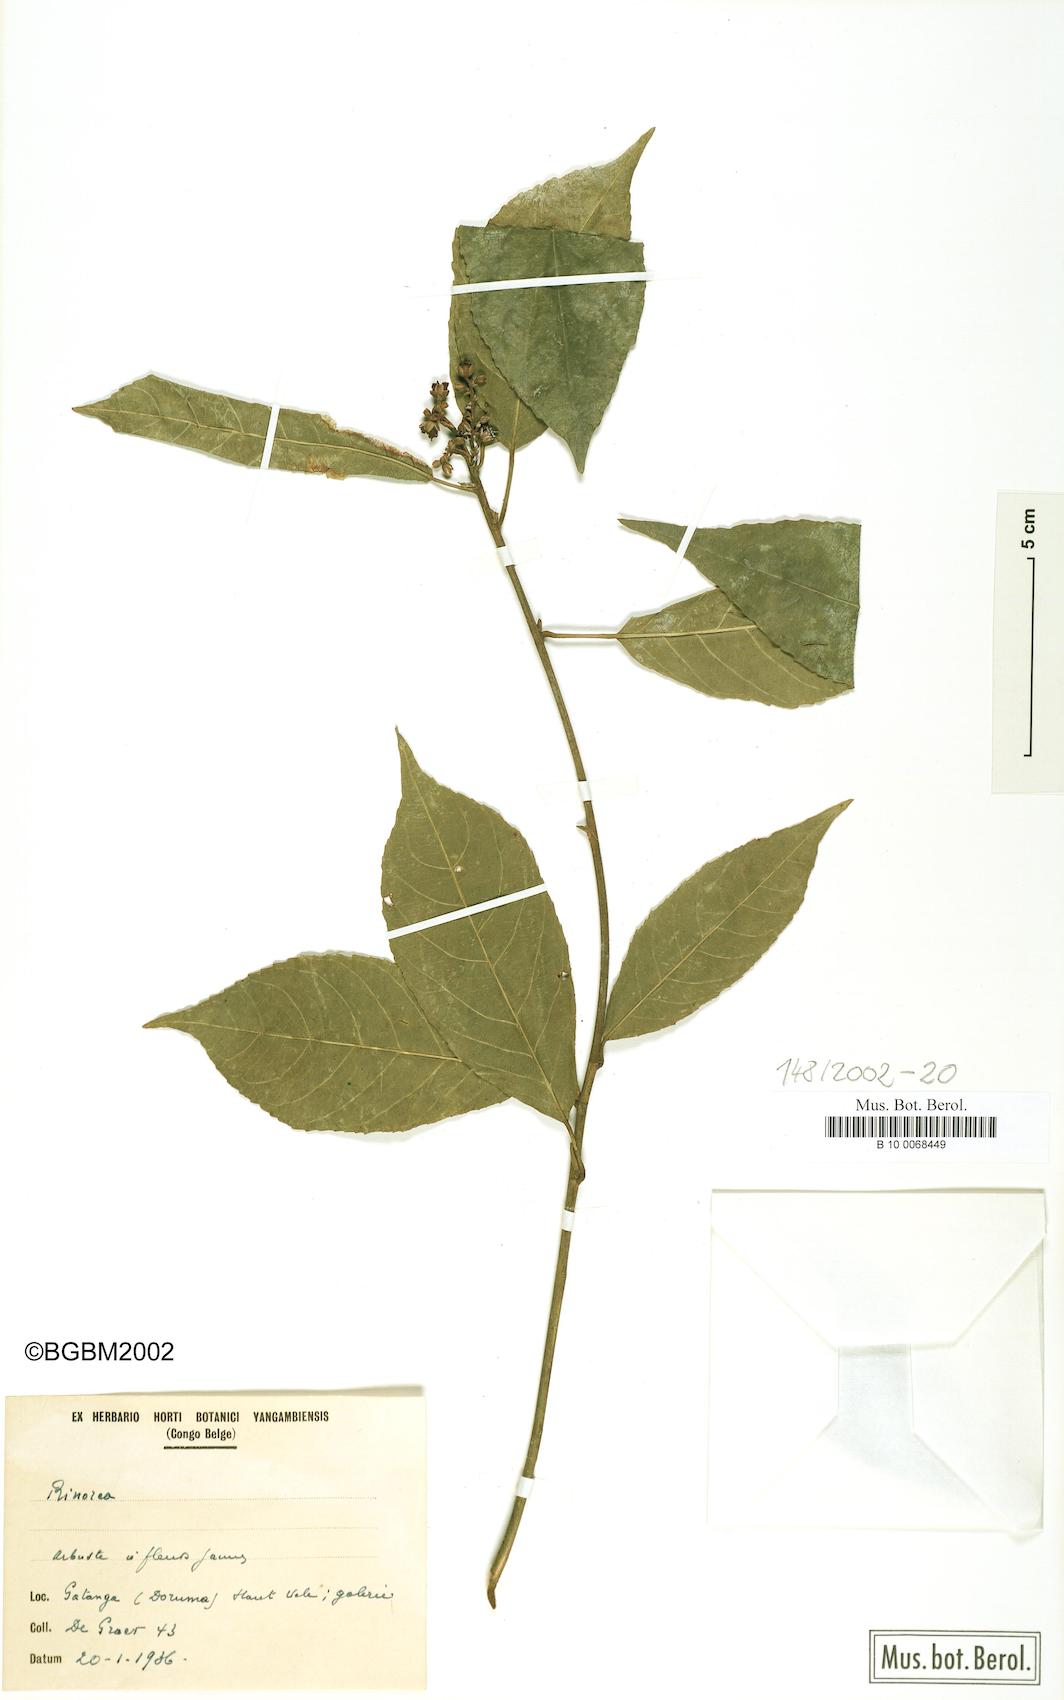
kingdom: Plantae
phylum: Tracheophyta
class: Magnoliopsida
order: Malpighiales
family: Violaceae
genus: Rinorea
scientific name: Rinorea
